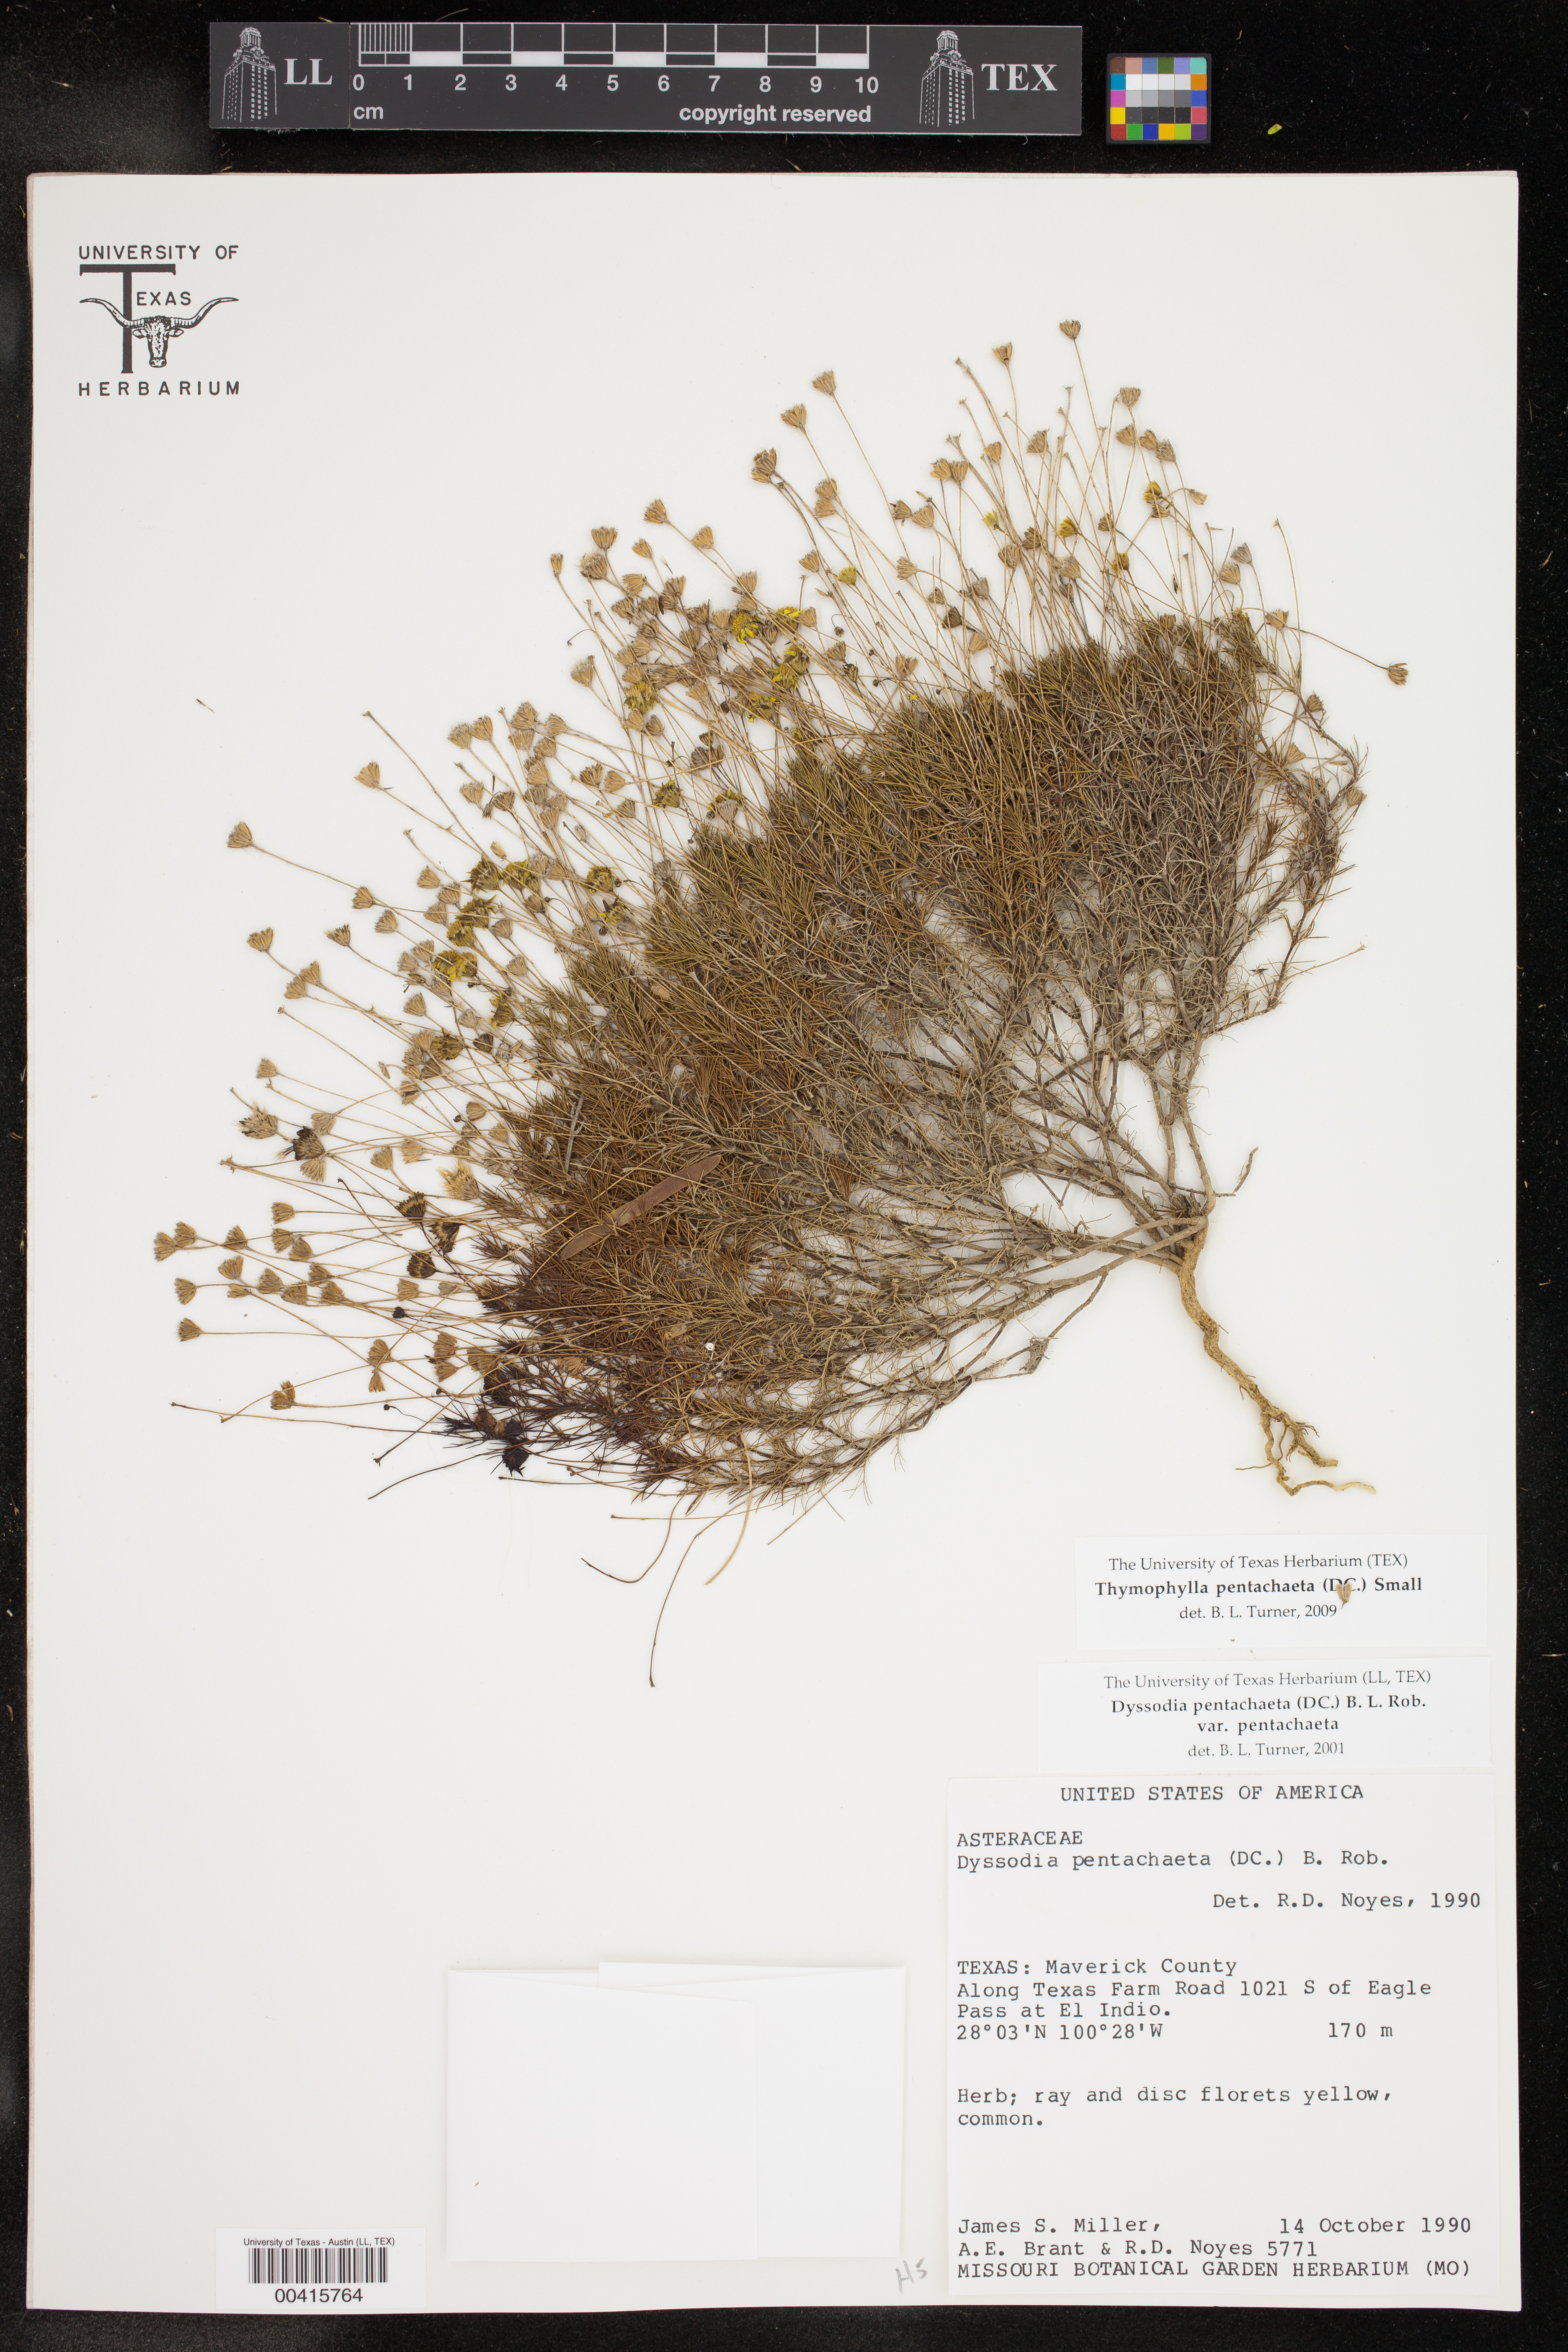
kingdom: Plantae
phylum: Tracheophyta
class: Magnoliopsida
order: Asterales
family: Asteraceae
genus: Thymophylla
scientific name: Thymophylla pentachaeta
